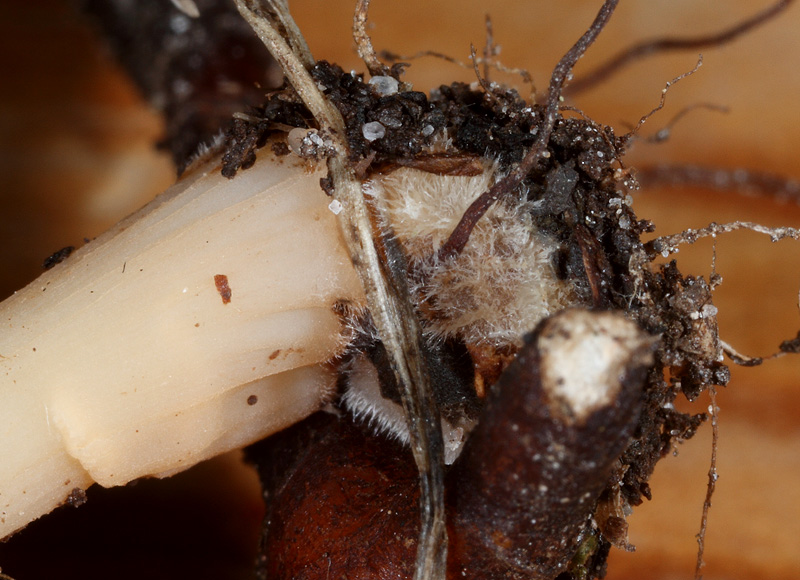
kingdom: Fungi
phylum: Basidiomycota
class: Agaricomycetes
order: Agaricales
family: Omphalotaceae
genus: Gymnopus
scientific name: Gymnopus dryophilus
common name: løv-fladhat
